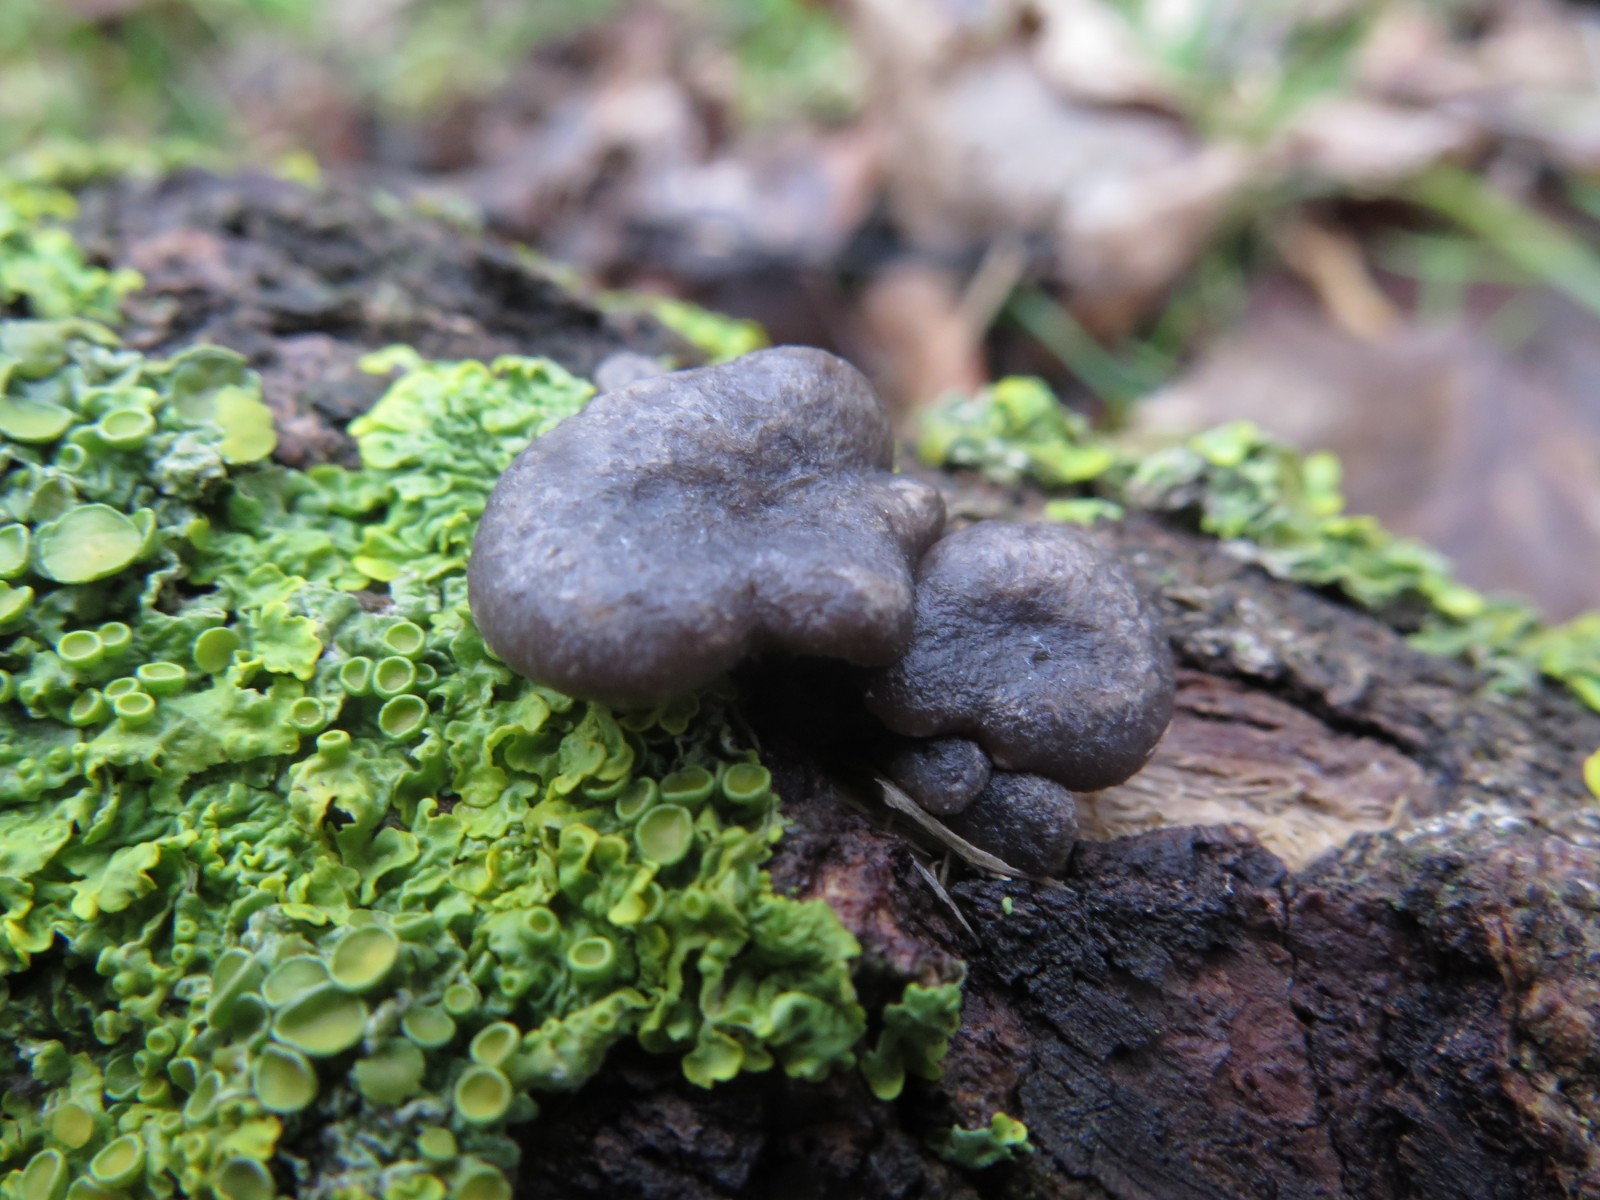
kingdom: Fungi
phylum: Basidiomycota
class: Agaricomycetes
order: Agaricales
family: Pleurotaceae
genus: Pleurotus
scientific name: Pleurotus ostreatus
